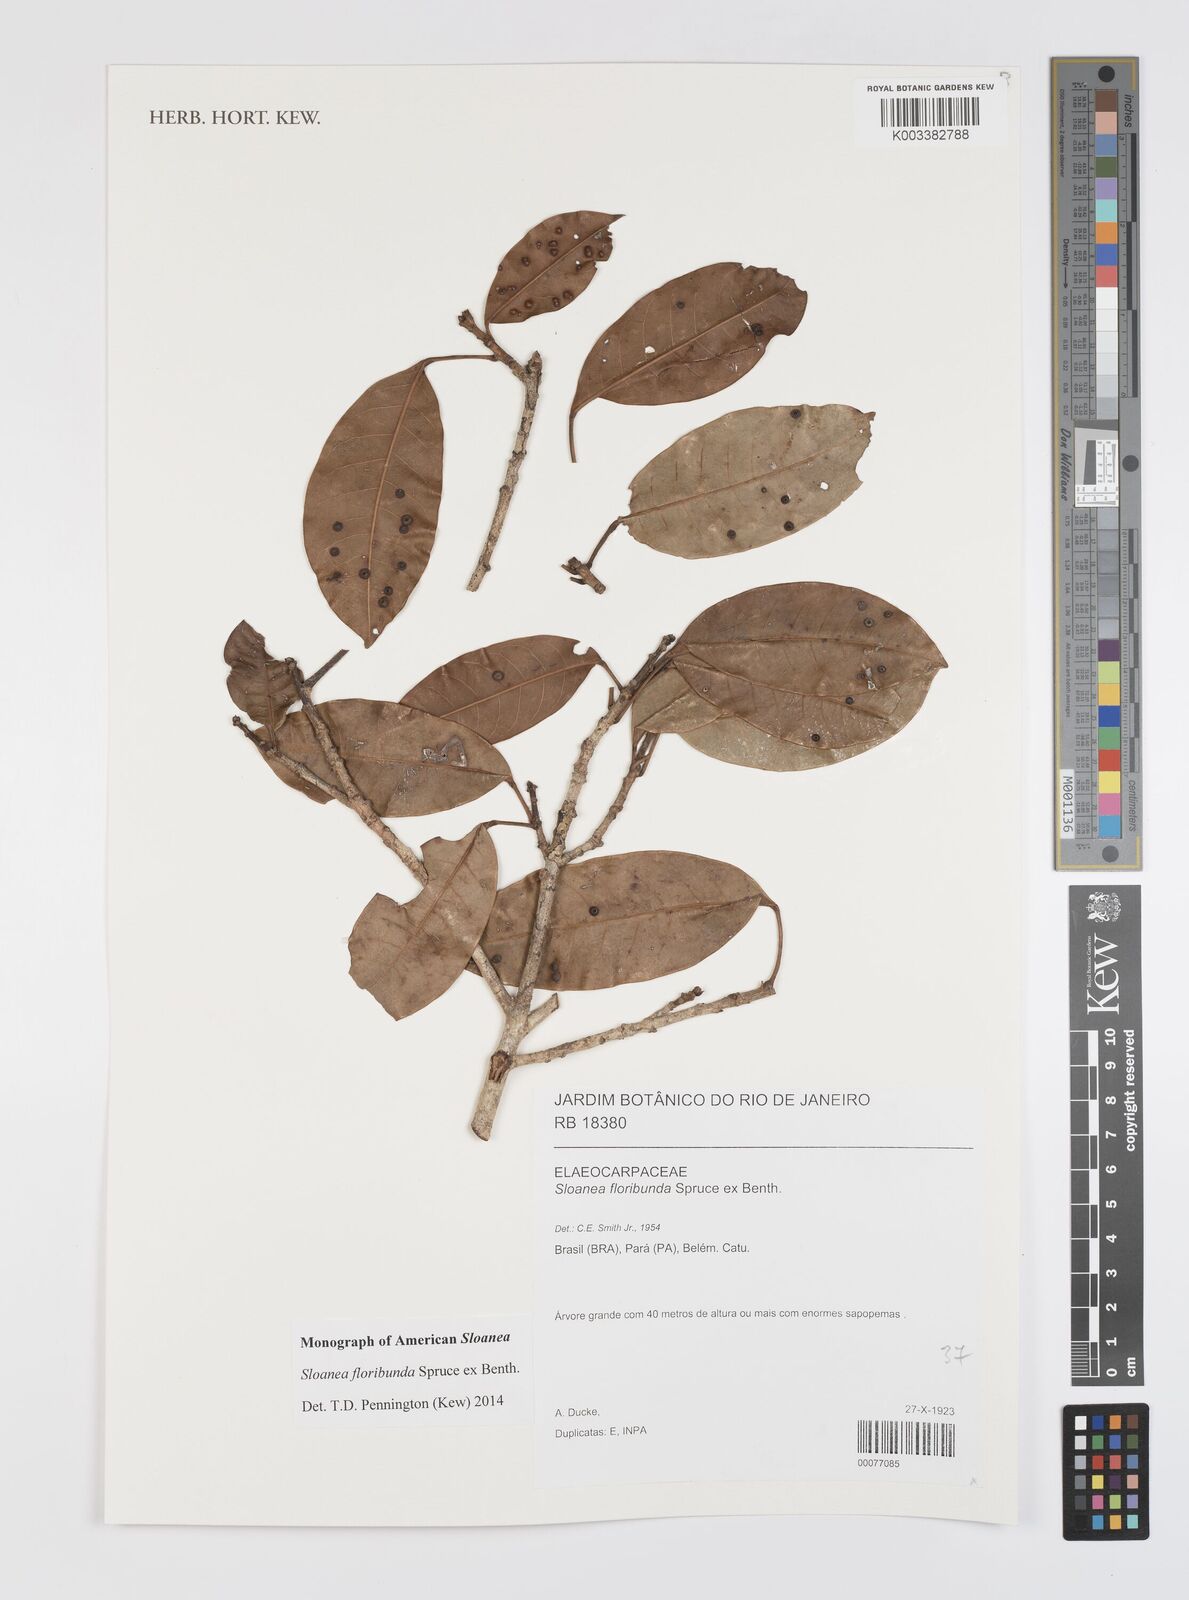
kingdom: Plantae
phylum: Tracheophyta
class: Magnoliopsida
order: Oxalidales
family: Elaeocarpaceae
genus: Sloanea
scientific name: Sloanea floribunda
